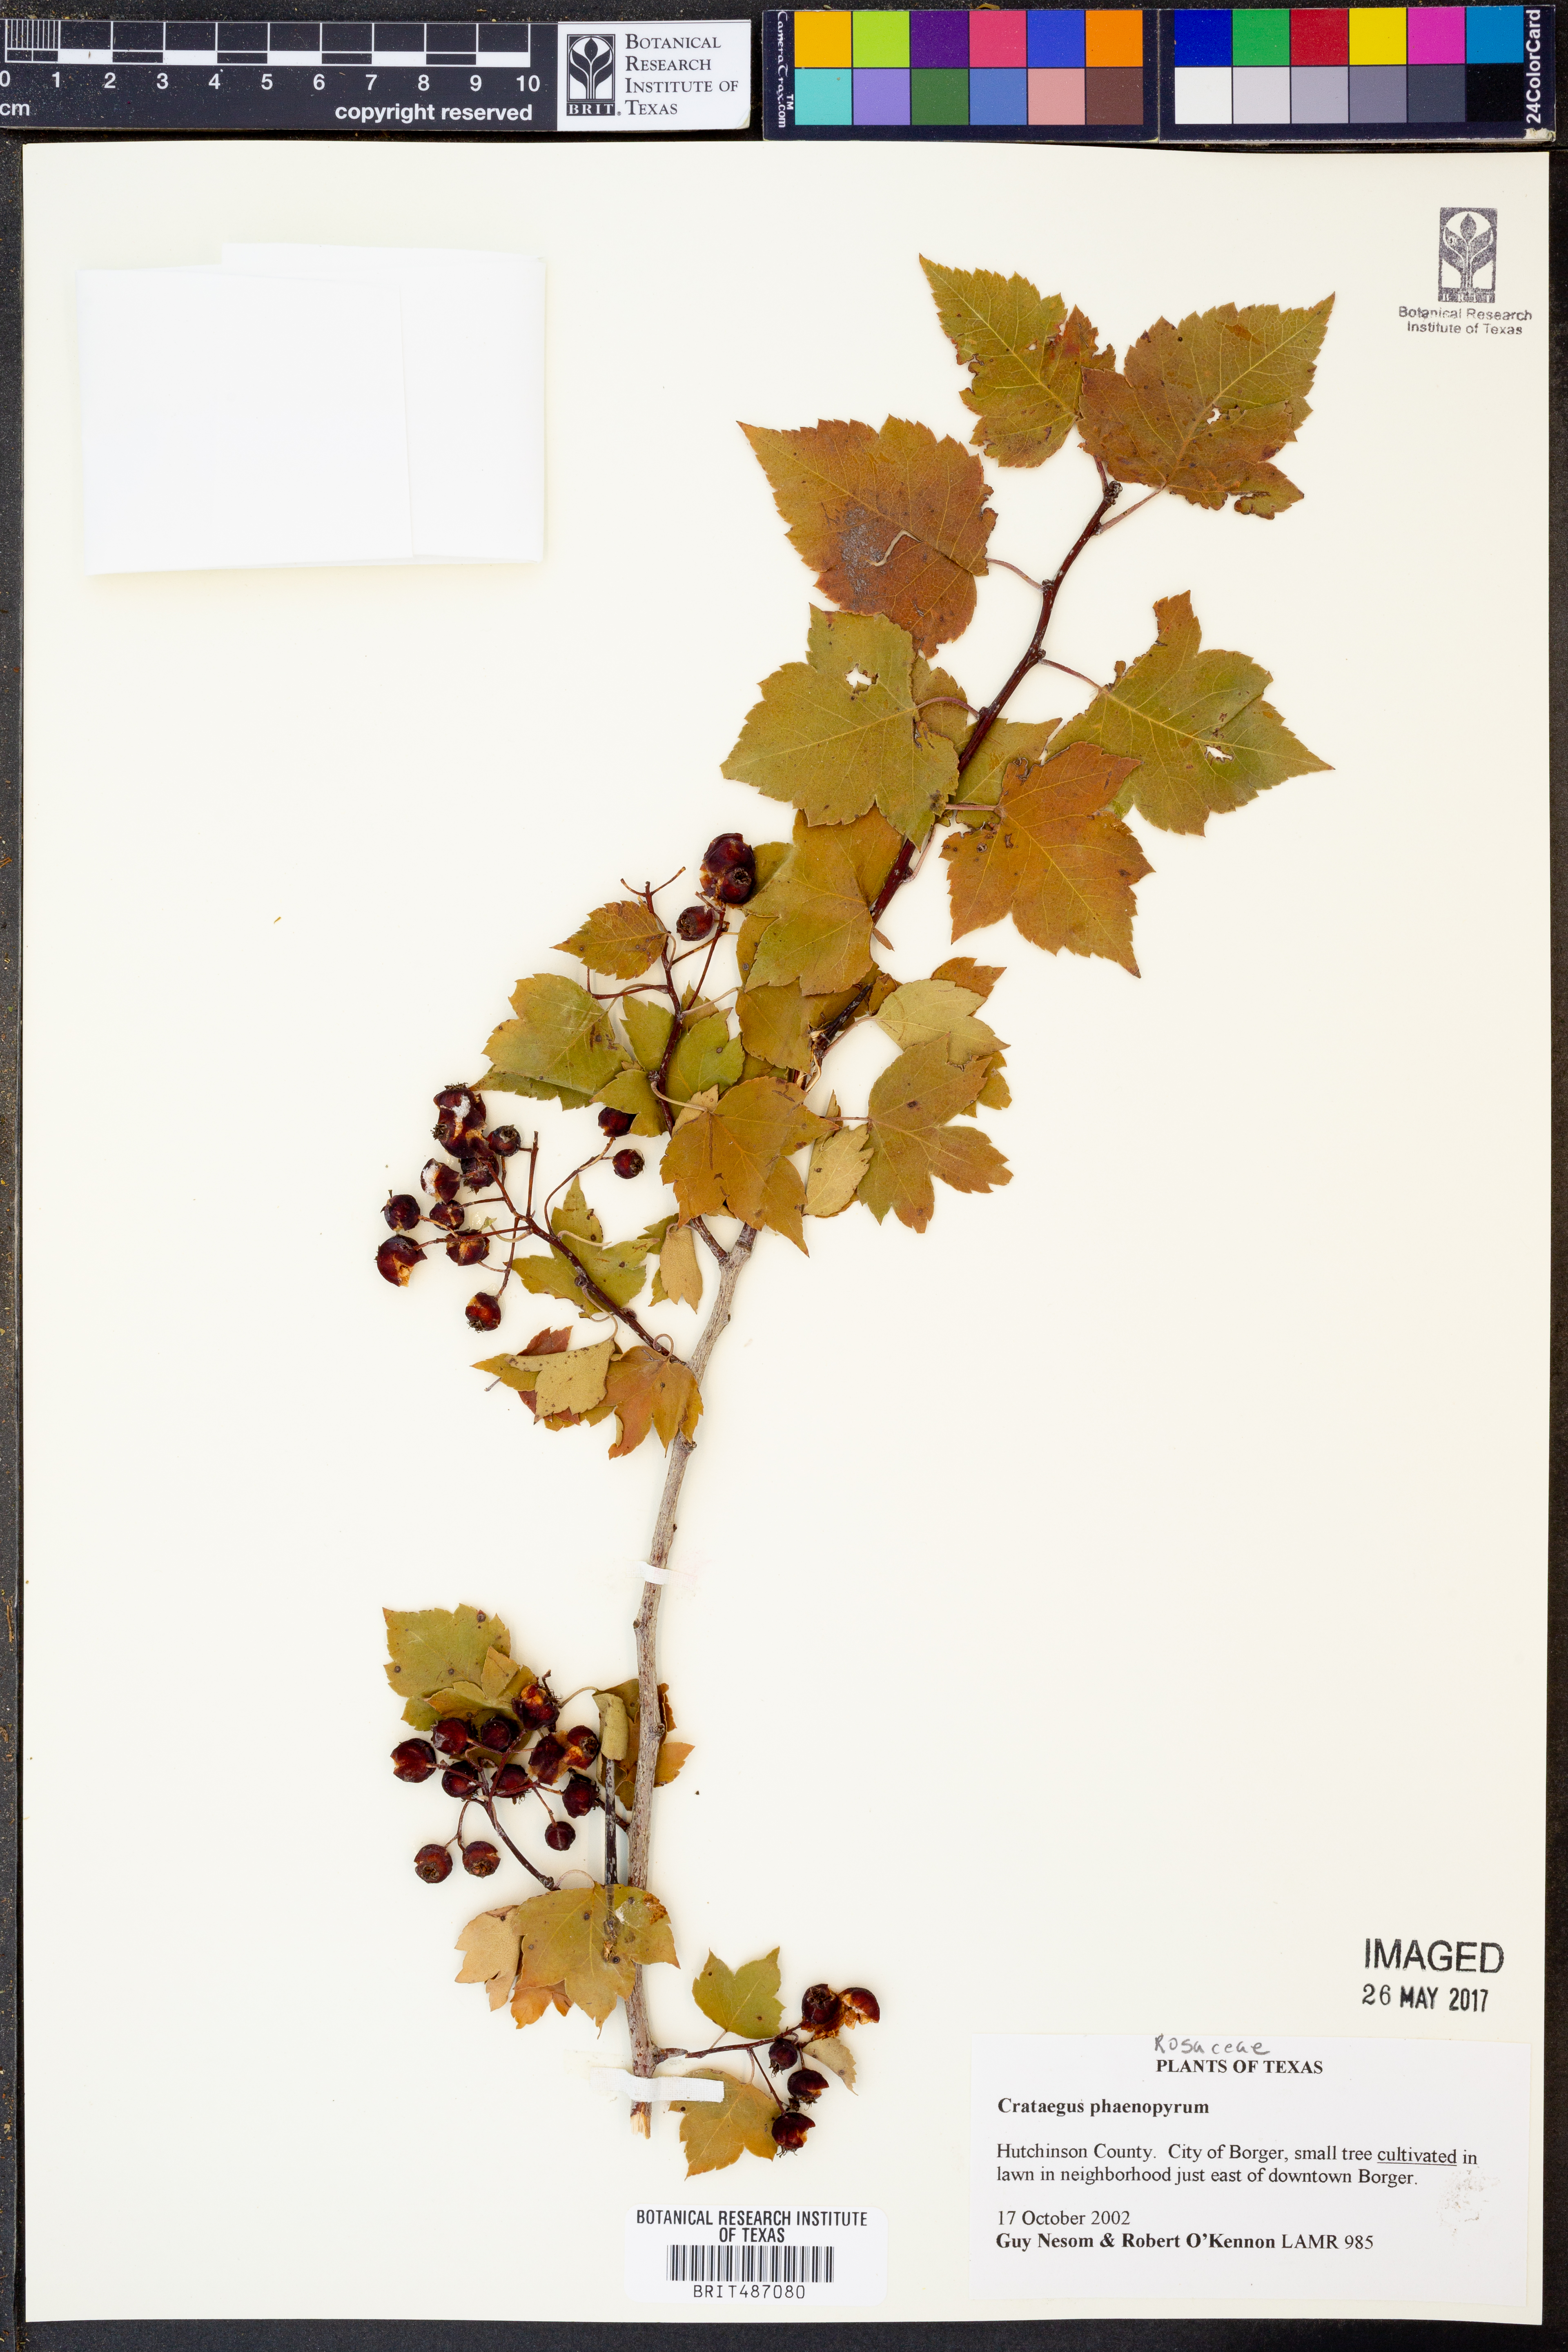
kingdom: Plantae
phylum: Tracheophyta
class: Magnoliopsida
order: Rosales
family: Rosaceae
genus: Crataegus
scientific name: Crataegus phaenopyrum
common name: Washington hawthorn
